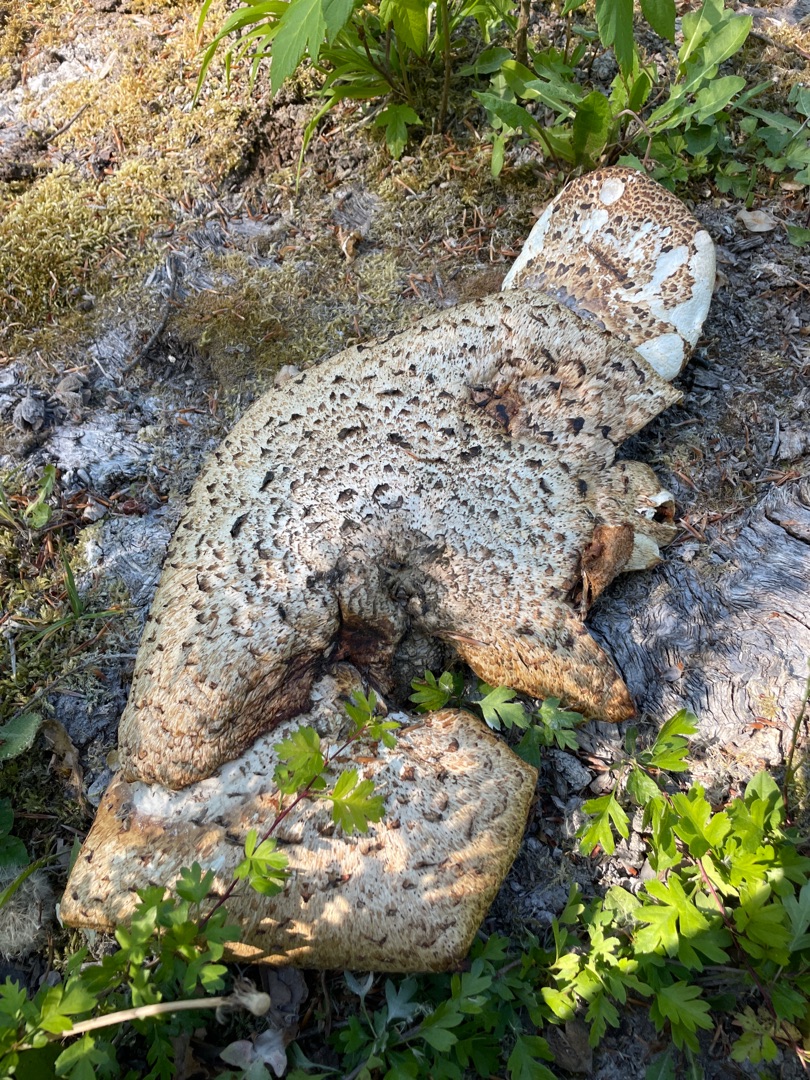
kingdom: Fungi
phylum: Basidiomycota
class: Agaricomycetes
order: Polyporales
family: Polyporaceae
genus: Cerioporus
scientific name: Cerioporus squamosus
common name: Skællet stilkporesvamp
